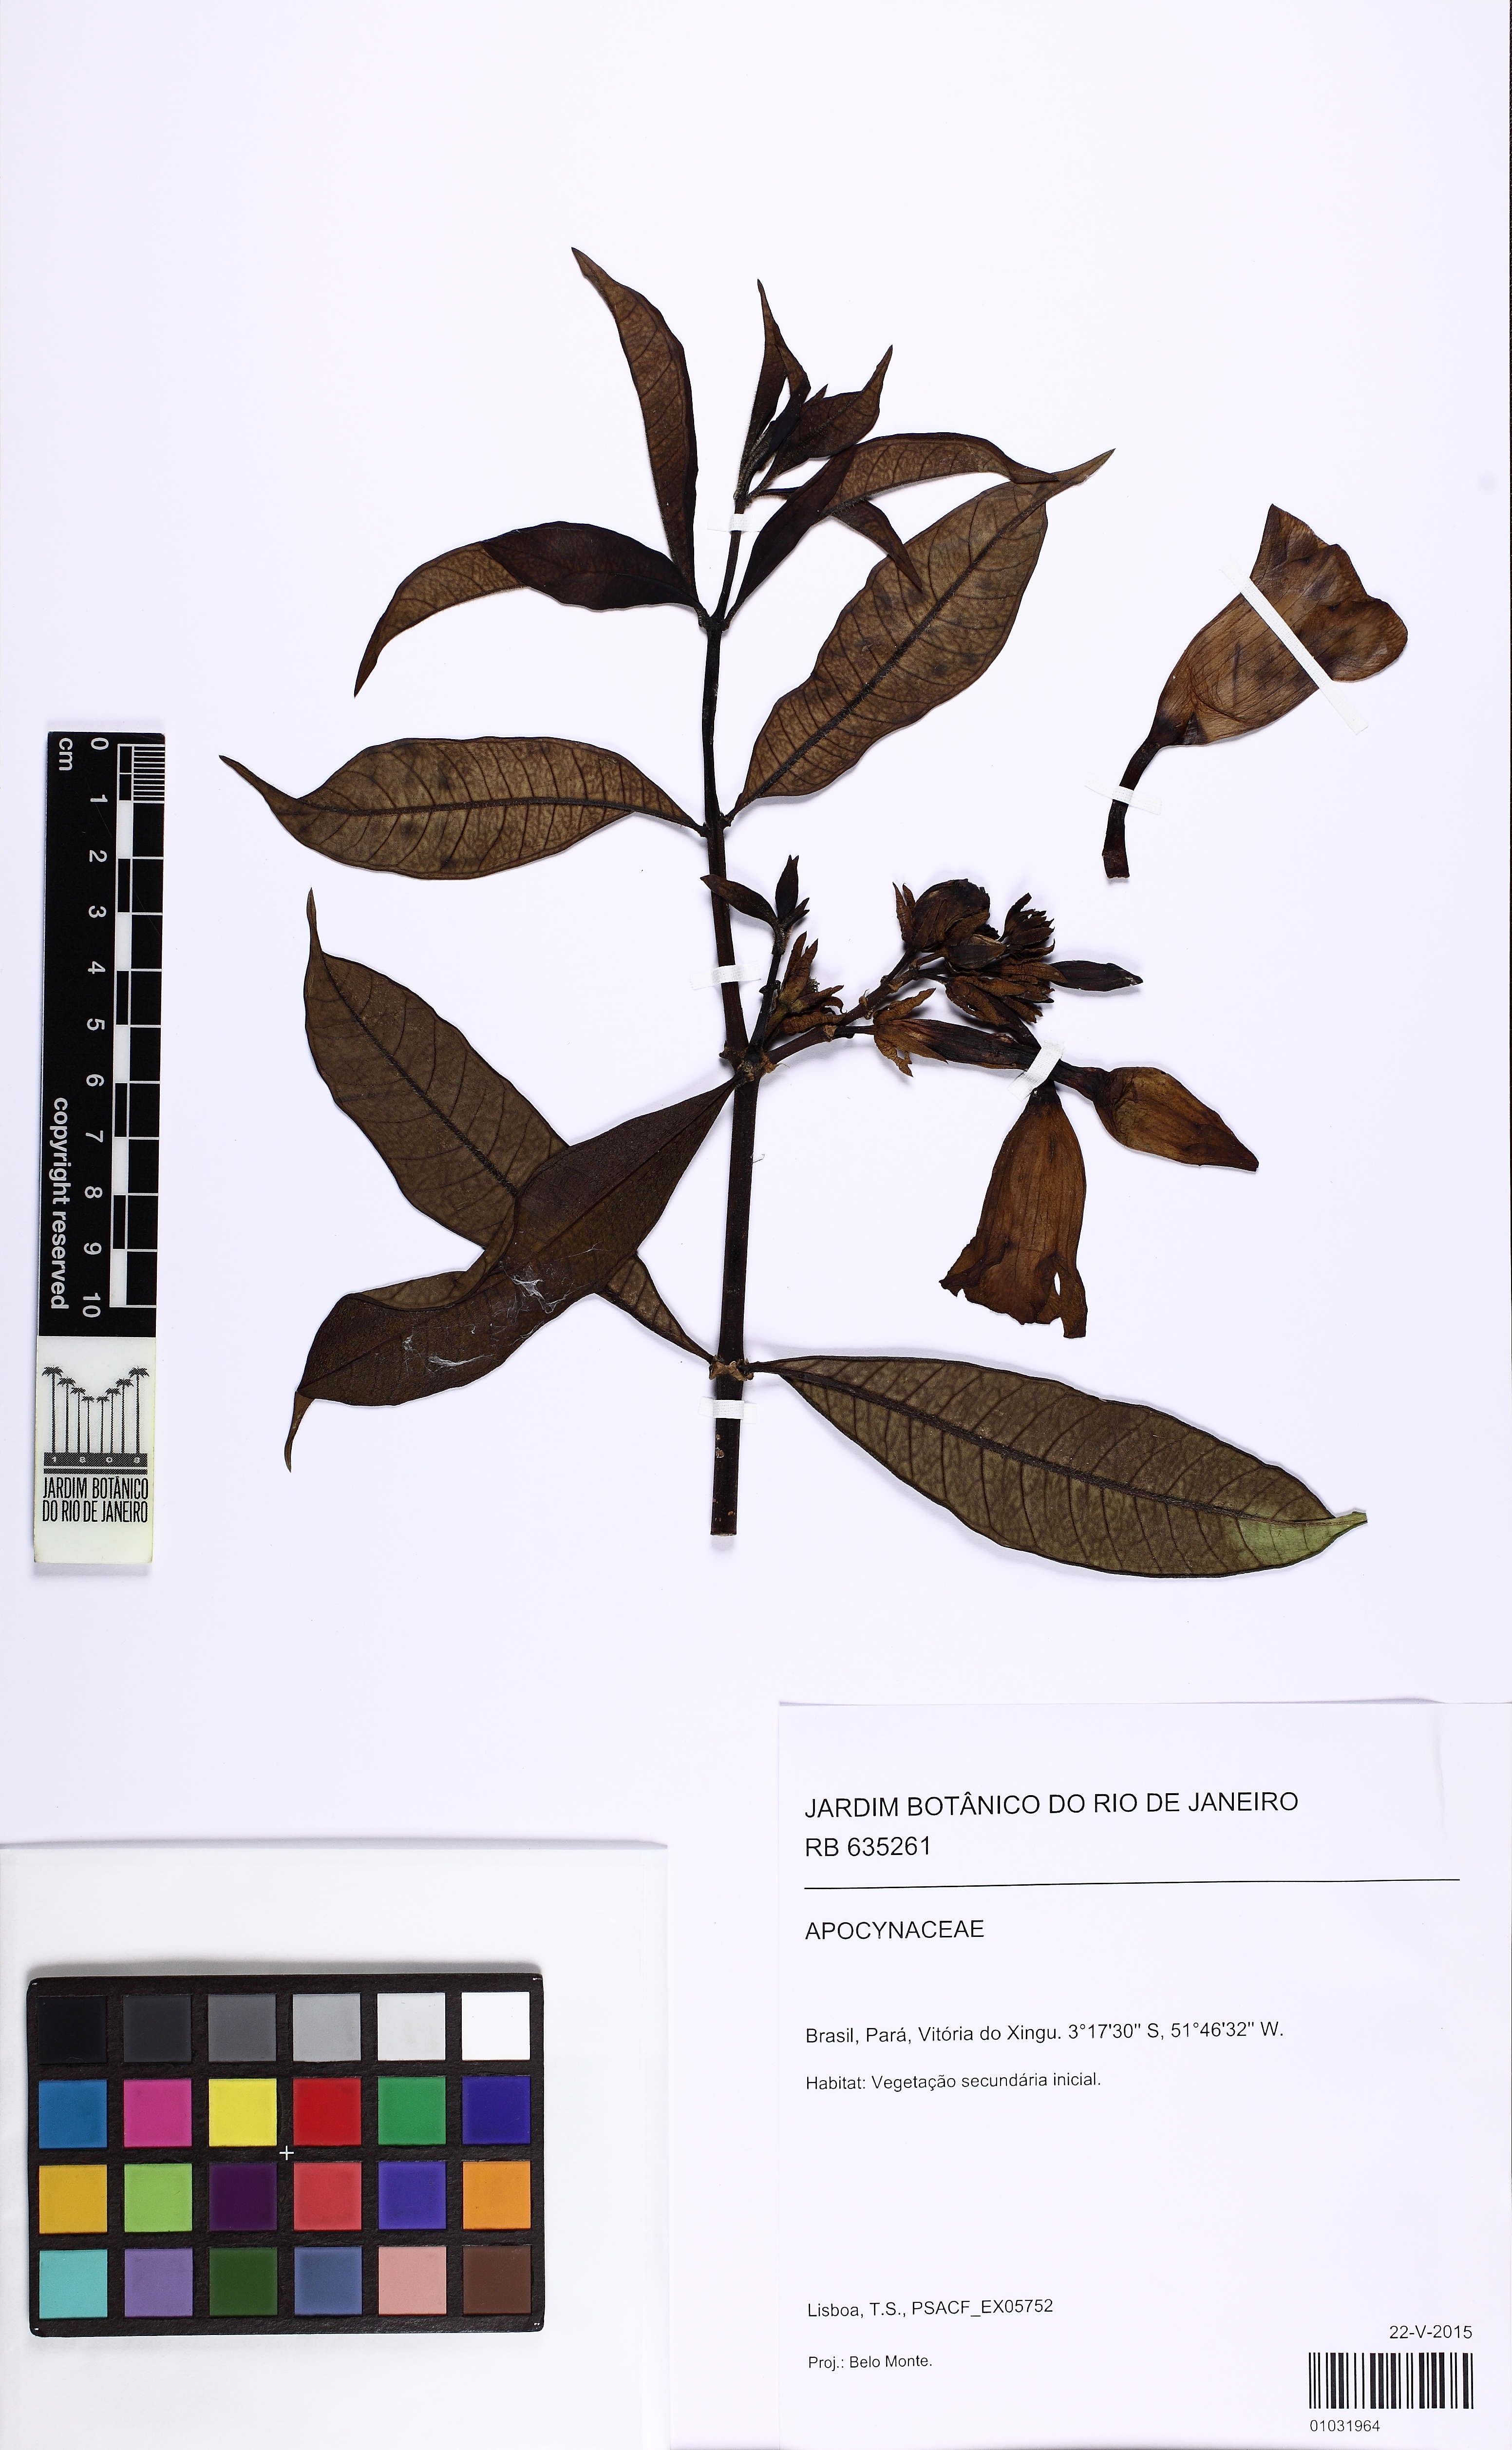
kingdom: Plantae
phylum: Tracheophyta
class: Magnoliopsida
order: Gentianales
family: Apocynaceae
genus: Allamanda
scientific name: Allamanda
